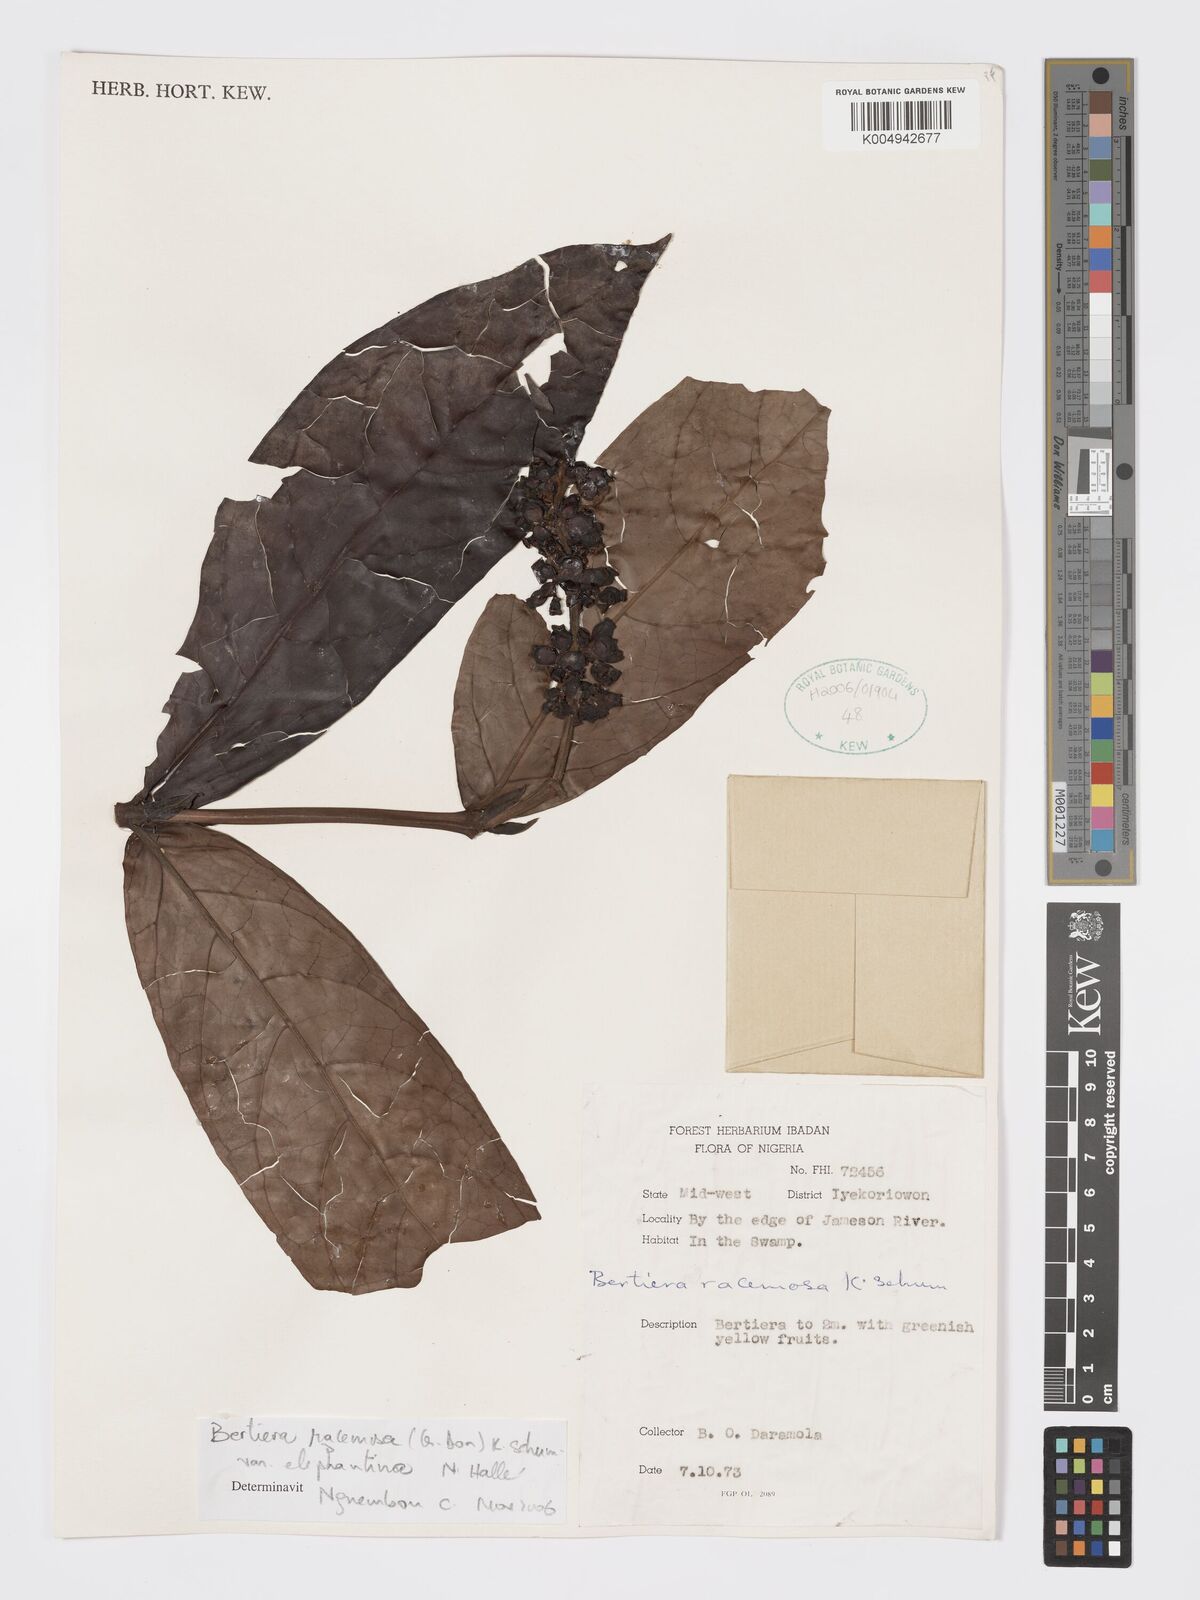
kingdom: Plantae
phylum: Tracheophyta
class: Magnoliopsida
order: Gentianales
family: Rubiaceae
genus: Bertiera
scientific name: Bertiera racemosa
